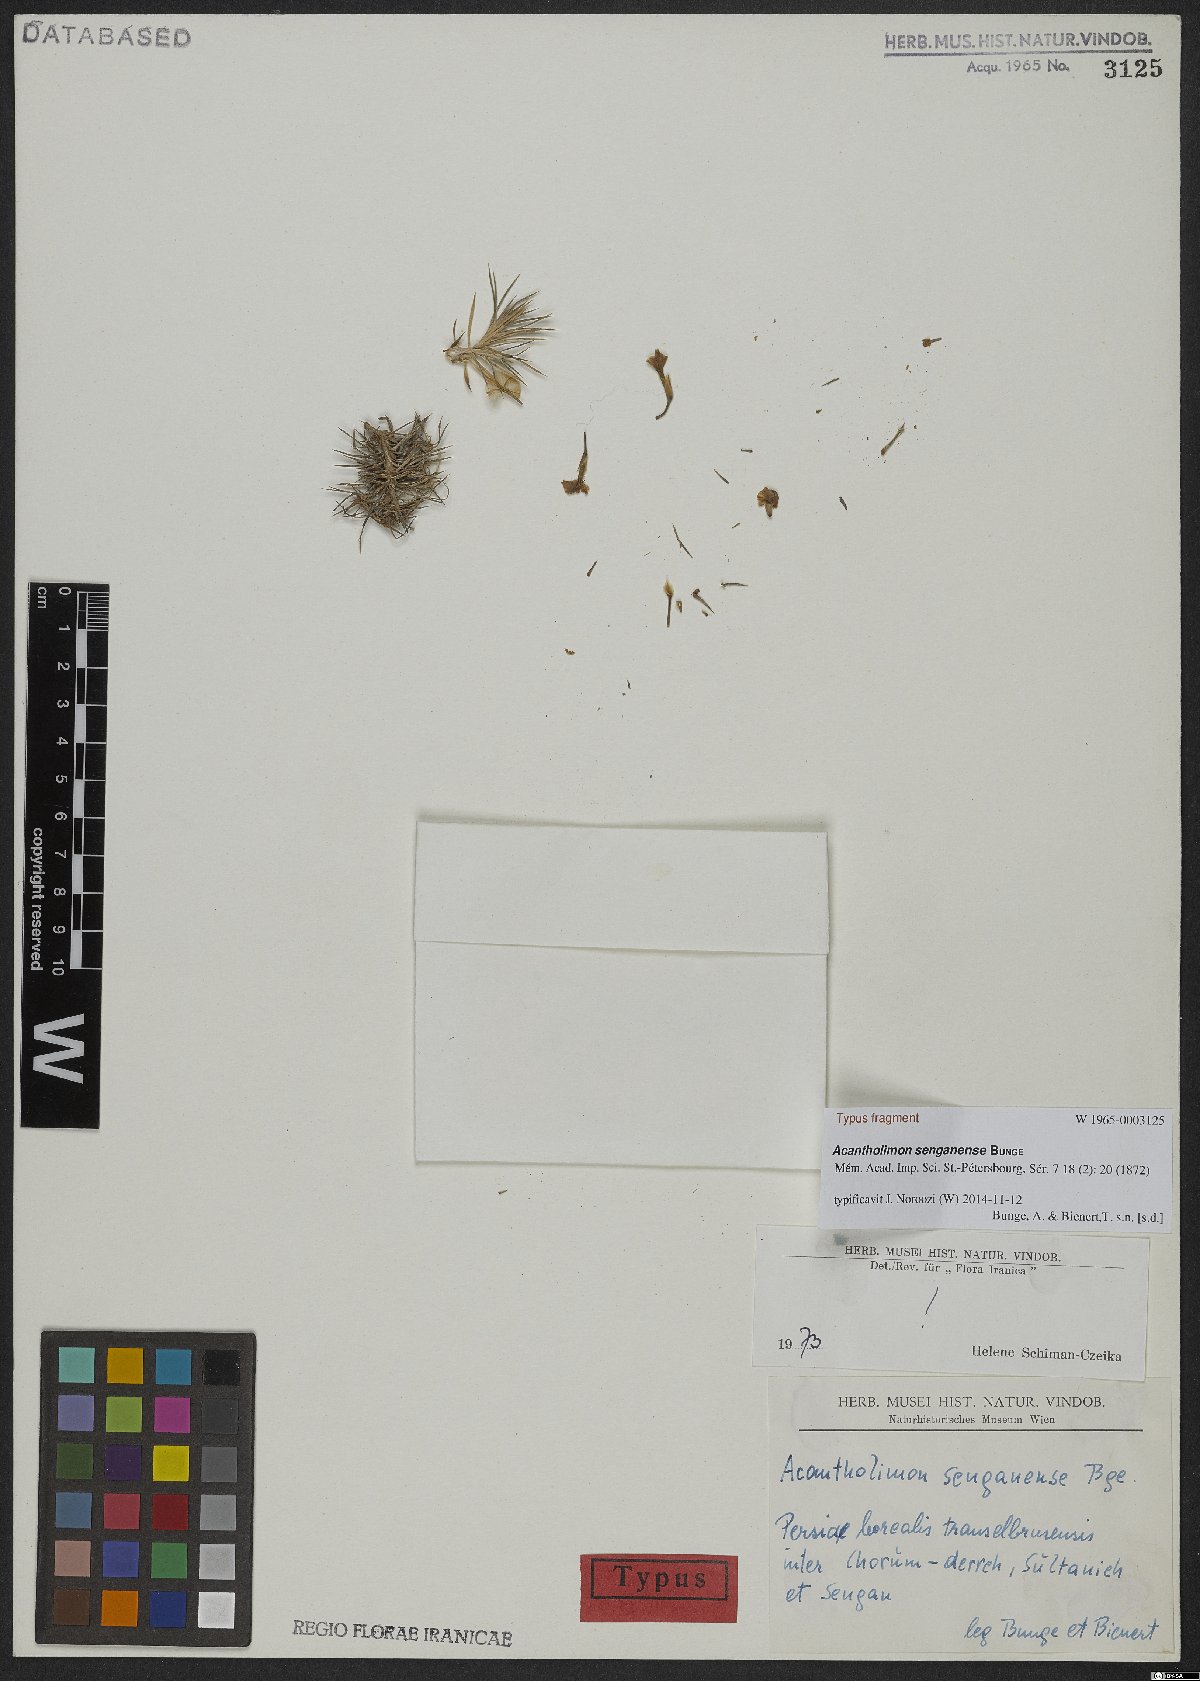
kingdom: Plantae
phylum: Tracheophyta
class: Magnoliopsida
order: Caryophyllales
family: Plumbaginaceae
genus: Acantholimon
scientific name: Acantholimon senganense
